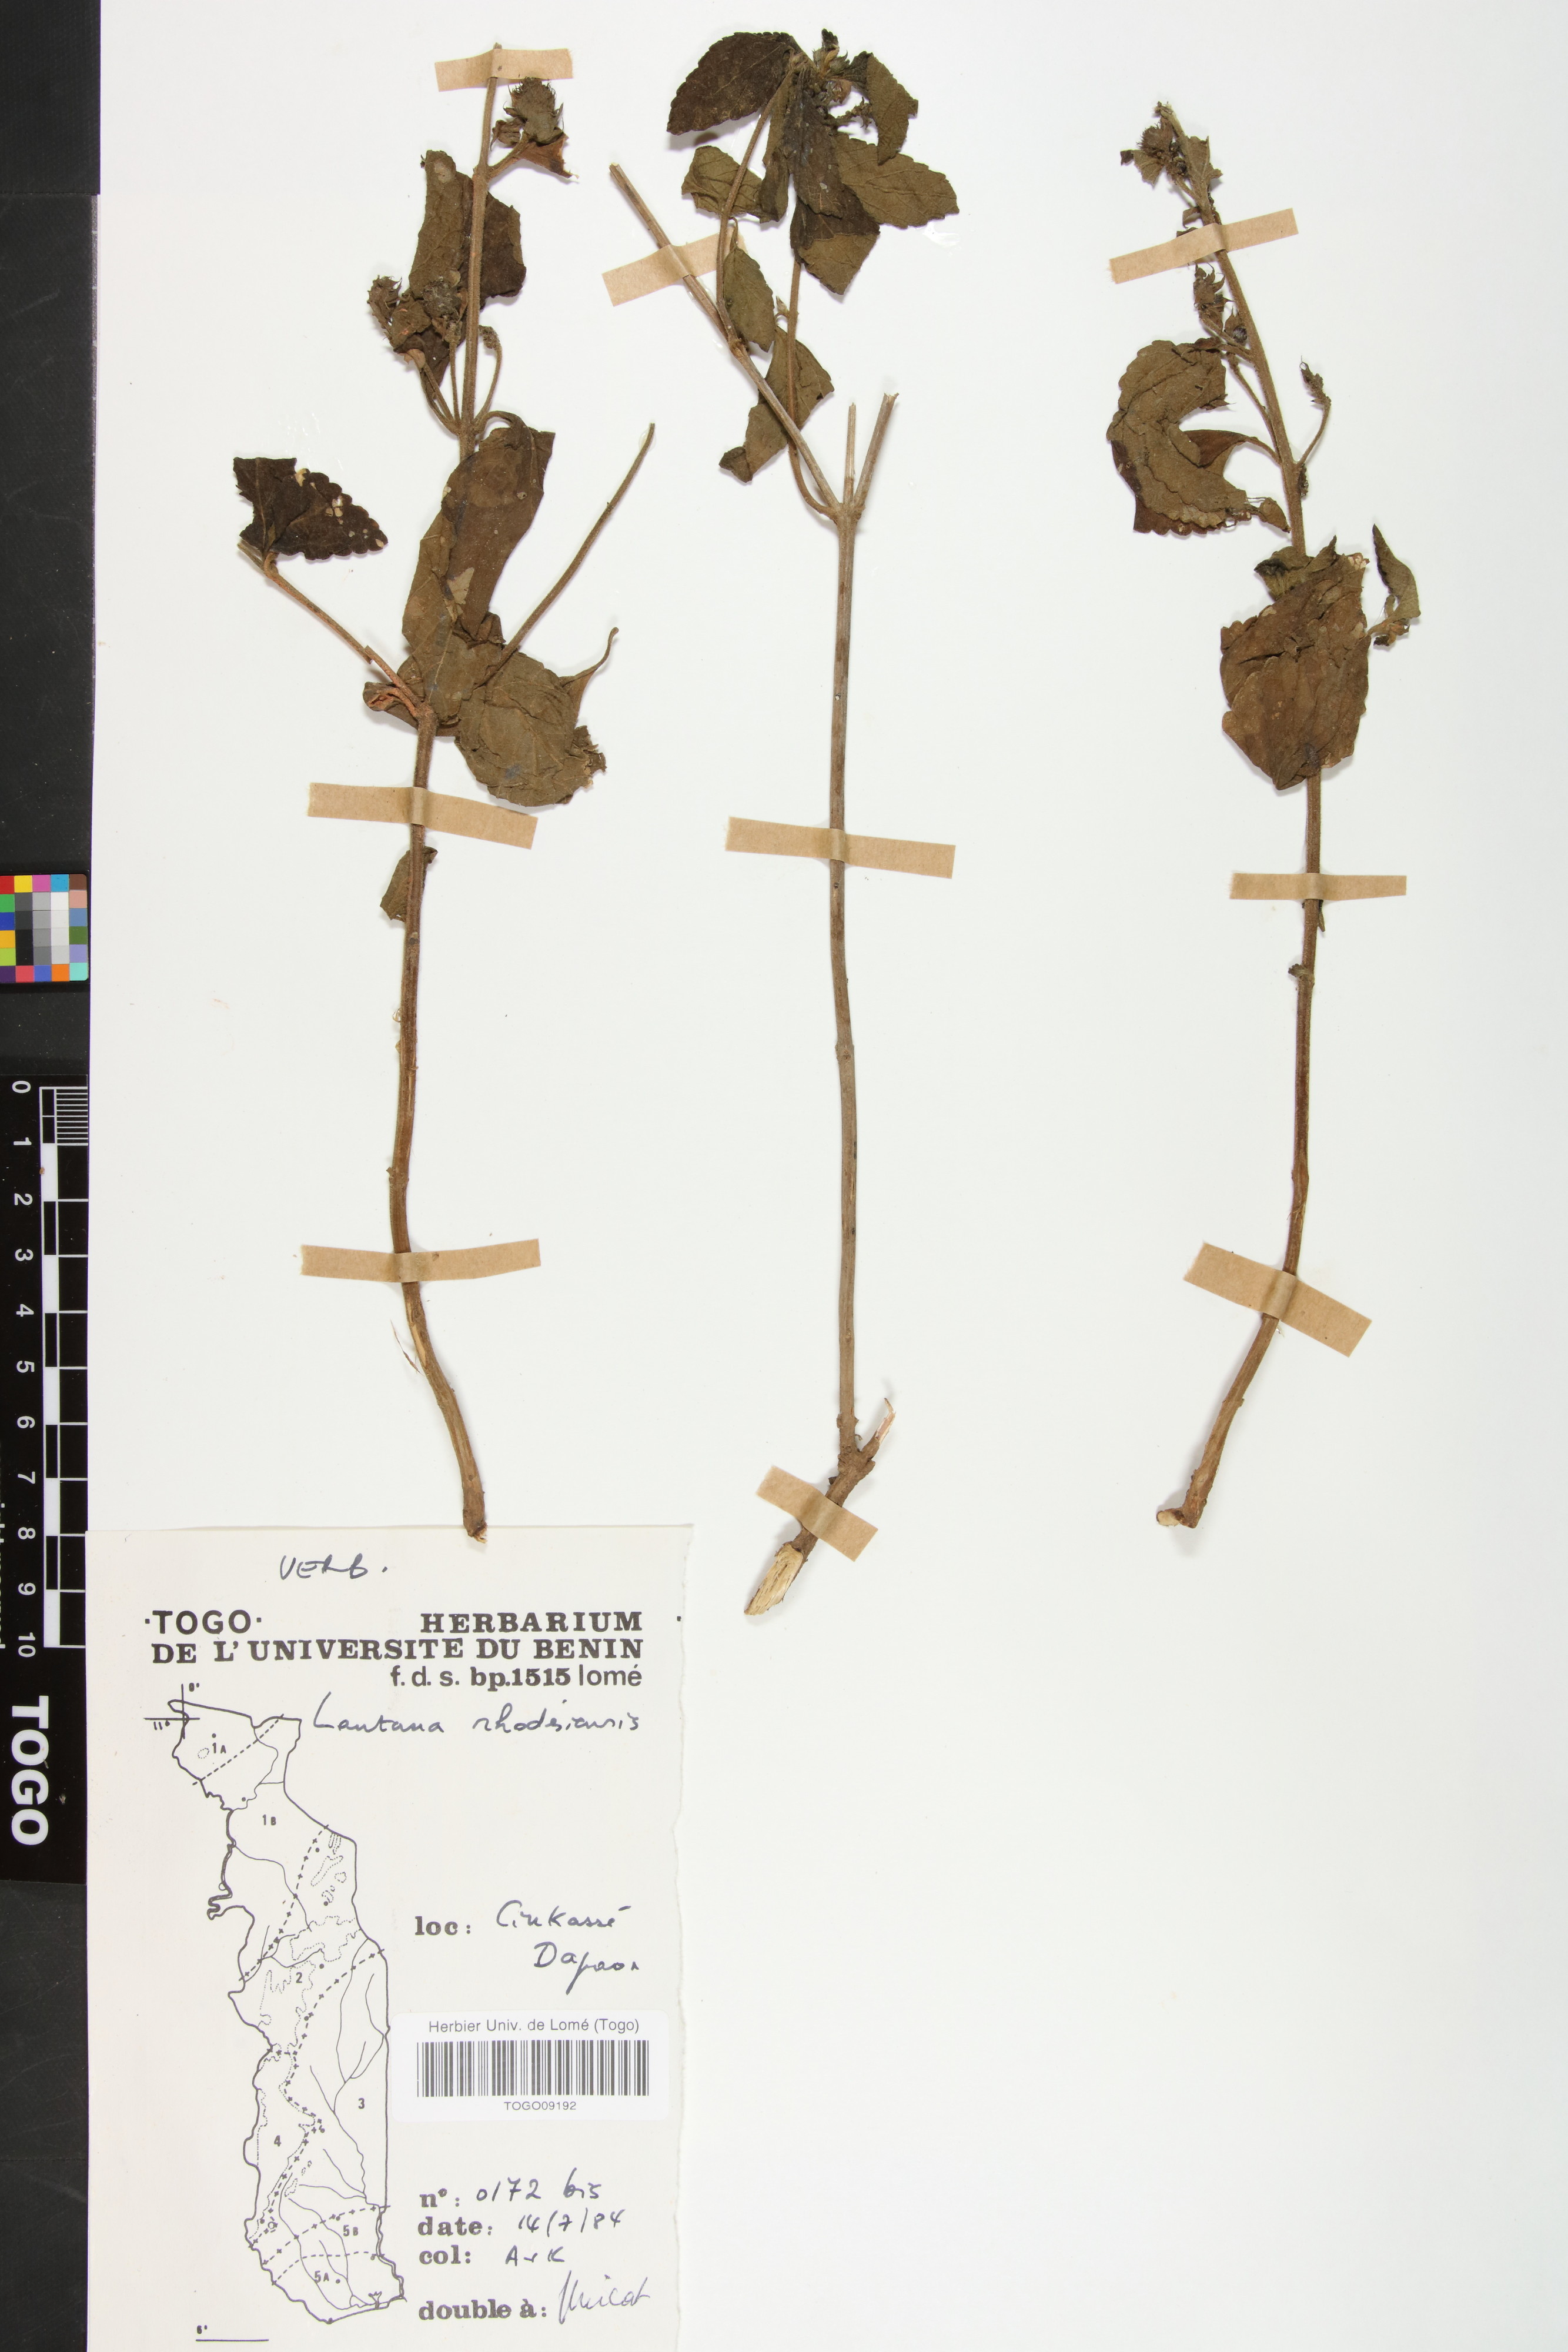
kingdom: Plantae
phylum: Tracheophyta
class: Magnoliopsida
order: Lamiales
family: Verbenaceae
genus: Lantana
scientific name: Lantana ukambensis
